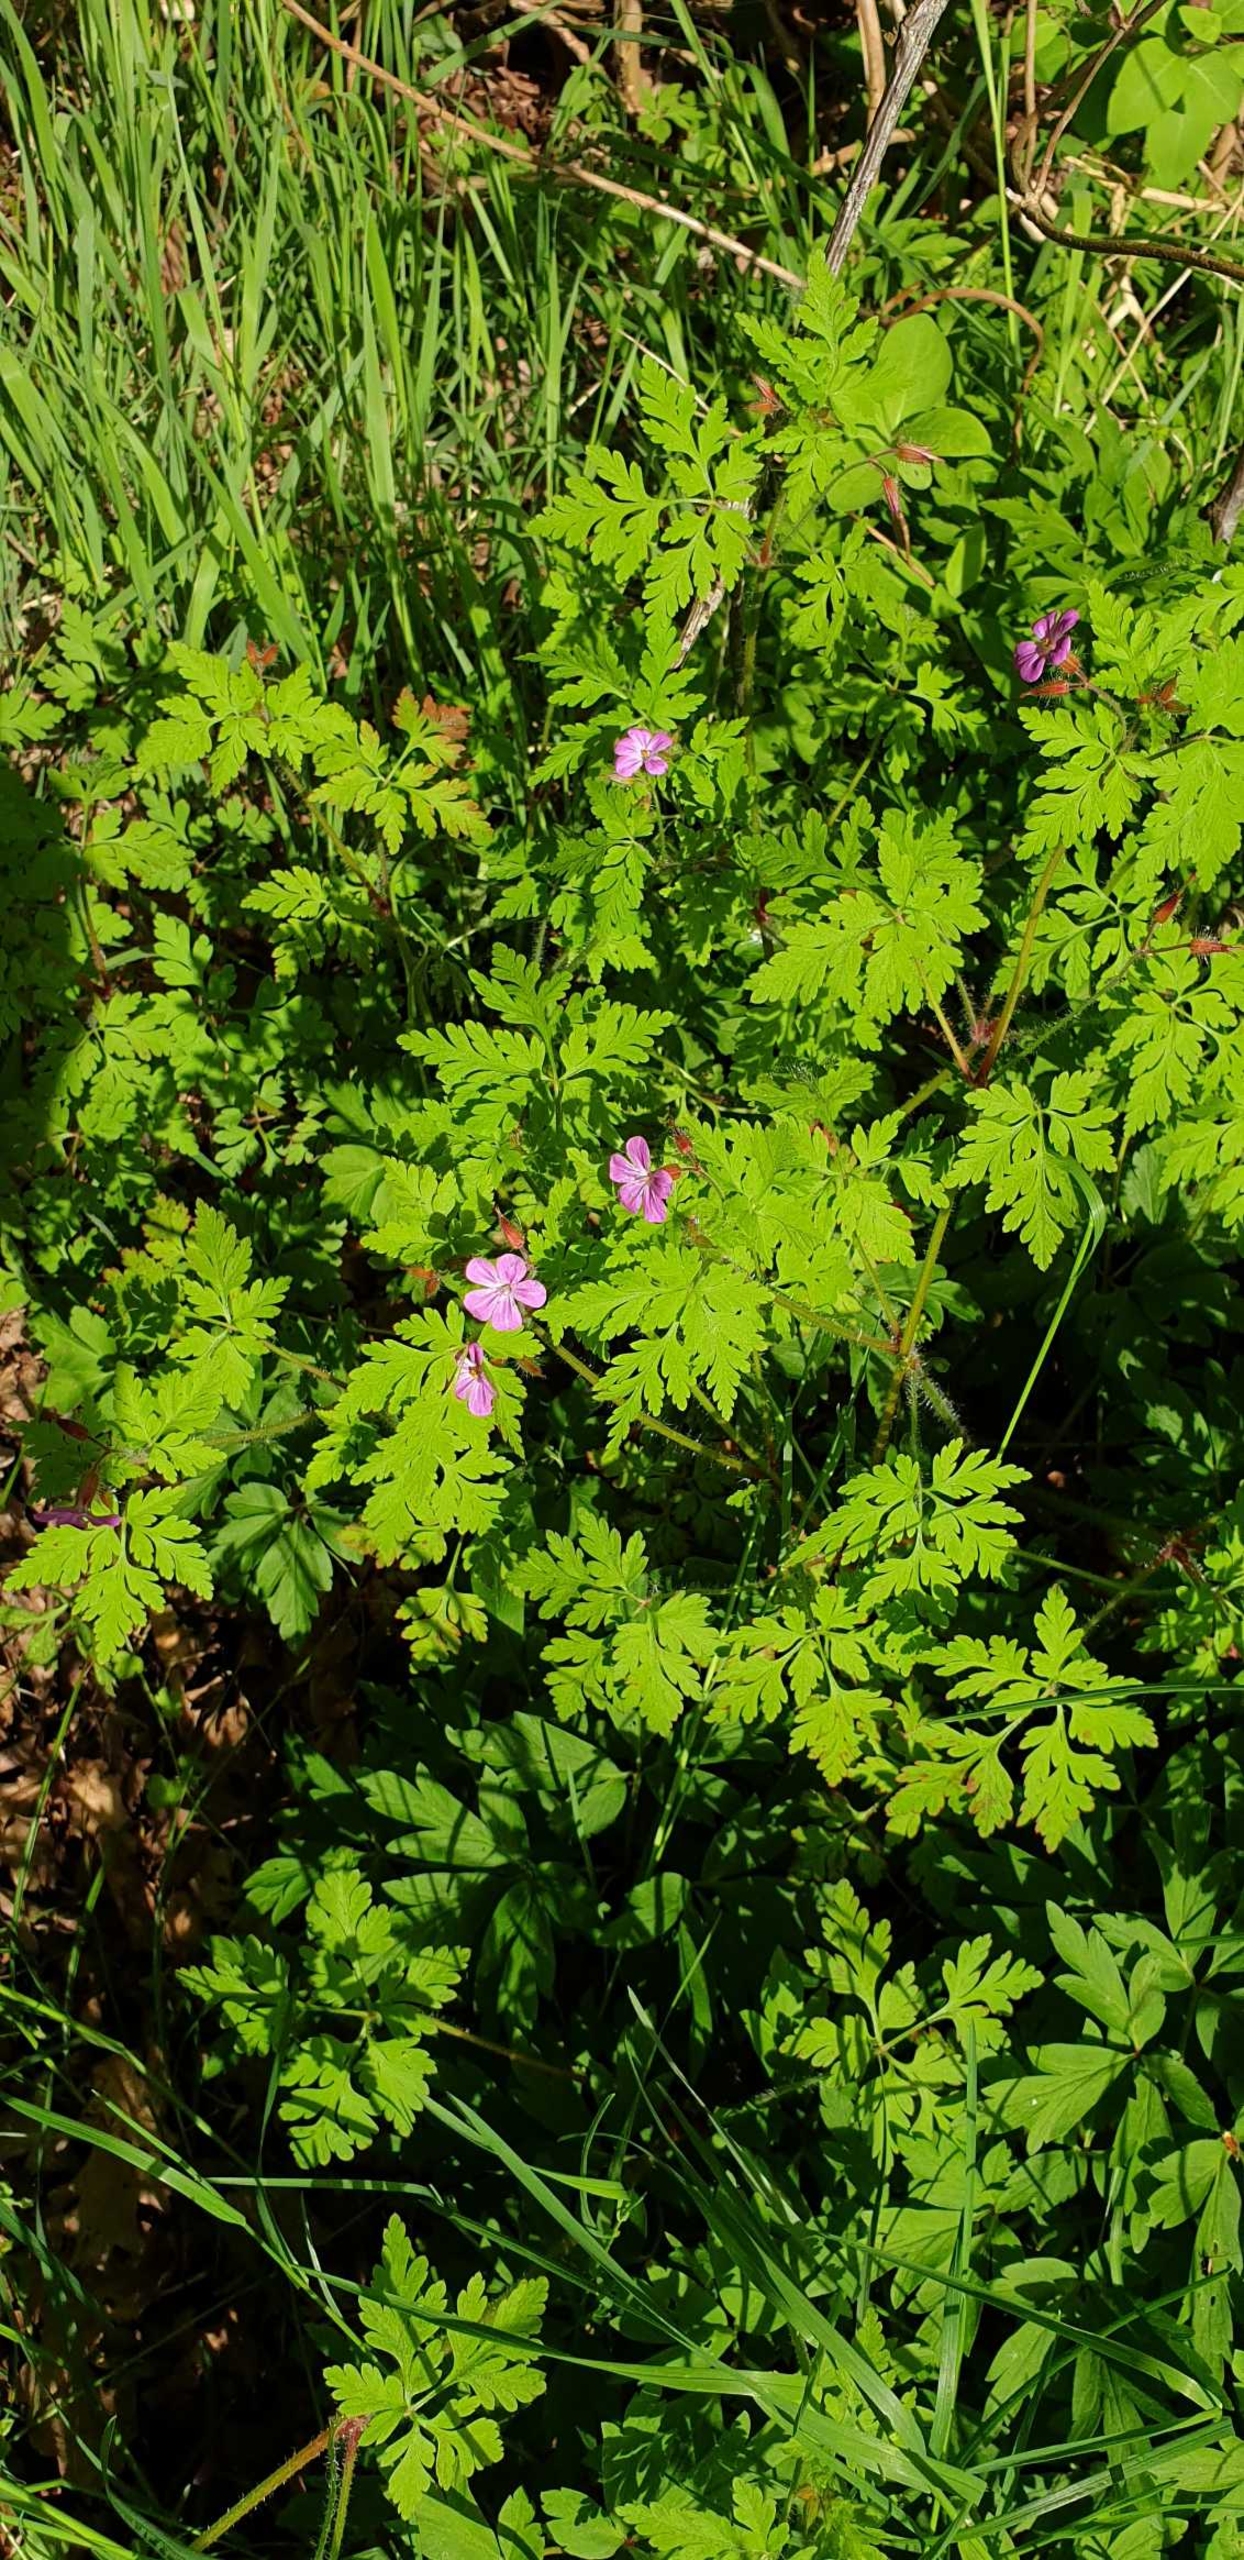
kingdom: Plantae
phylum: Tracheophyta
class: Magnoliopsida
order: Geraniales
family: Geraniaceae
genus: Geranium
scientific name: Geranium robertianum
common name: Stinkende storkenæb
